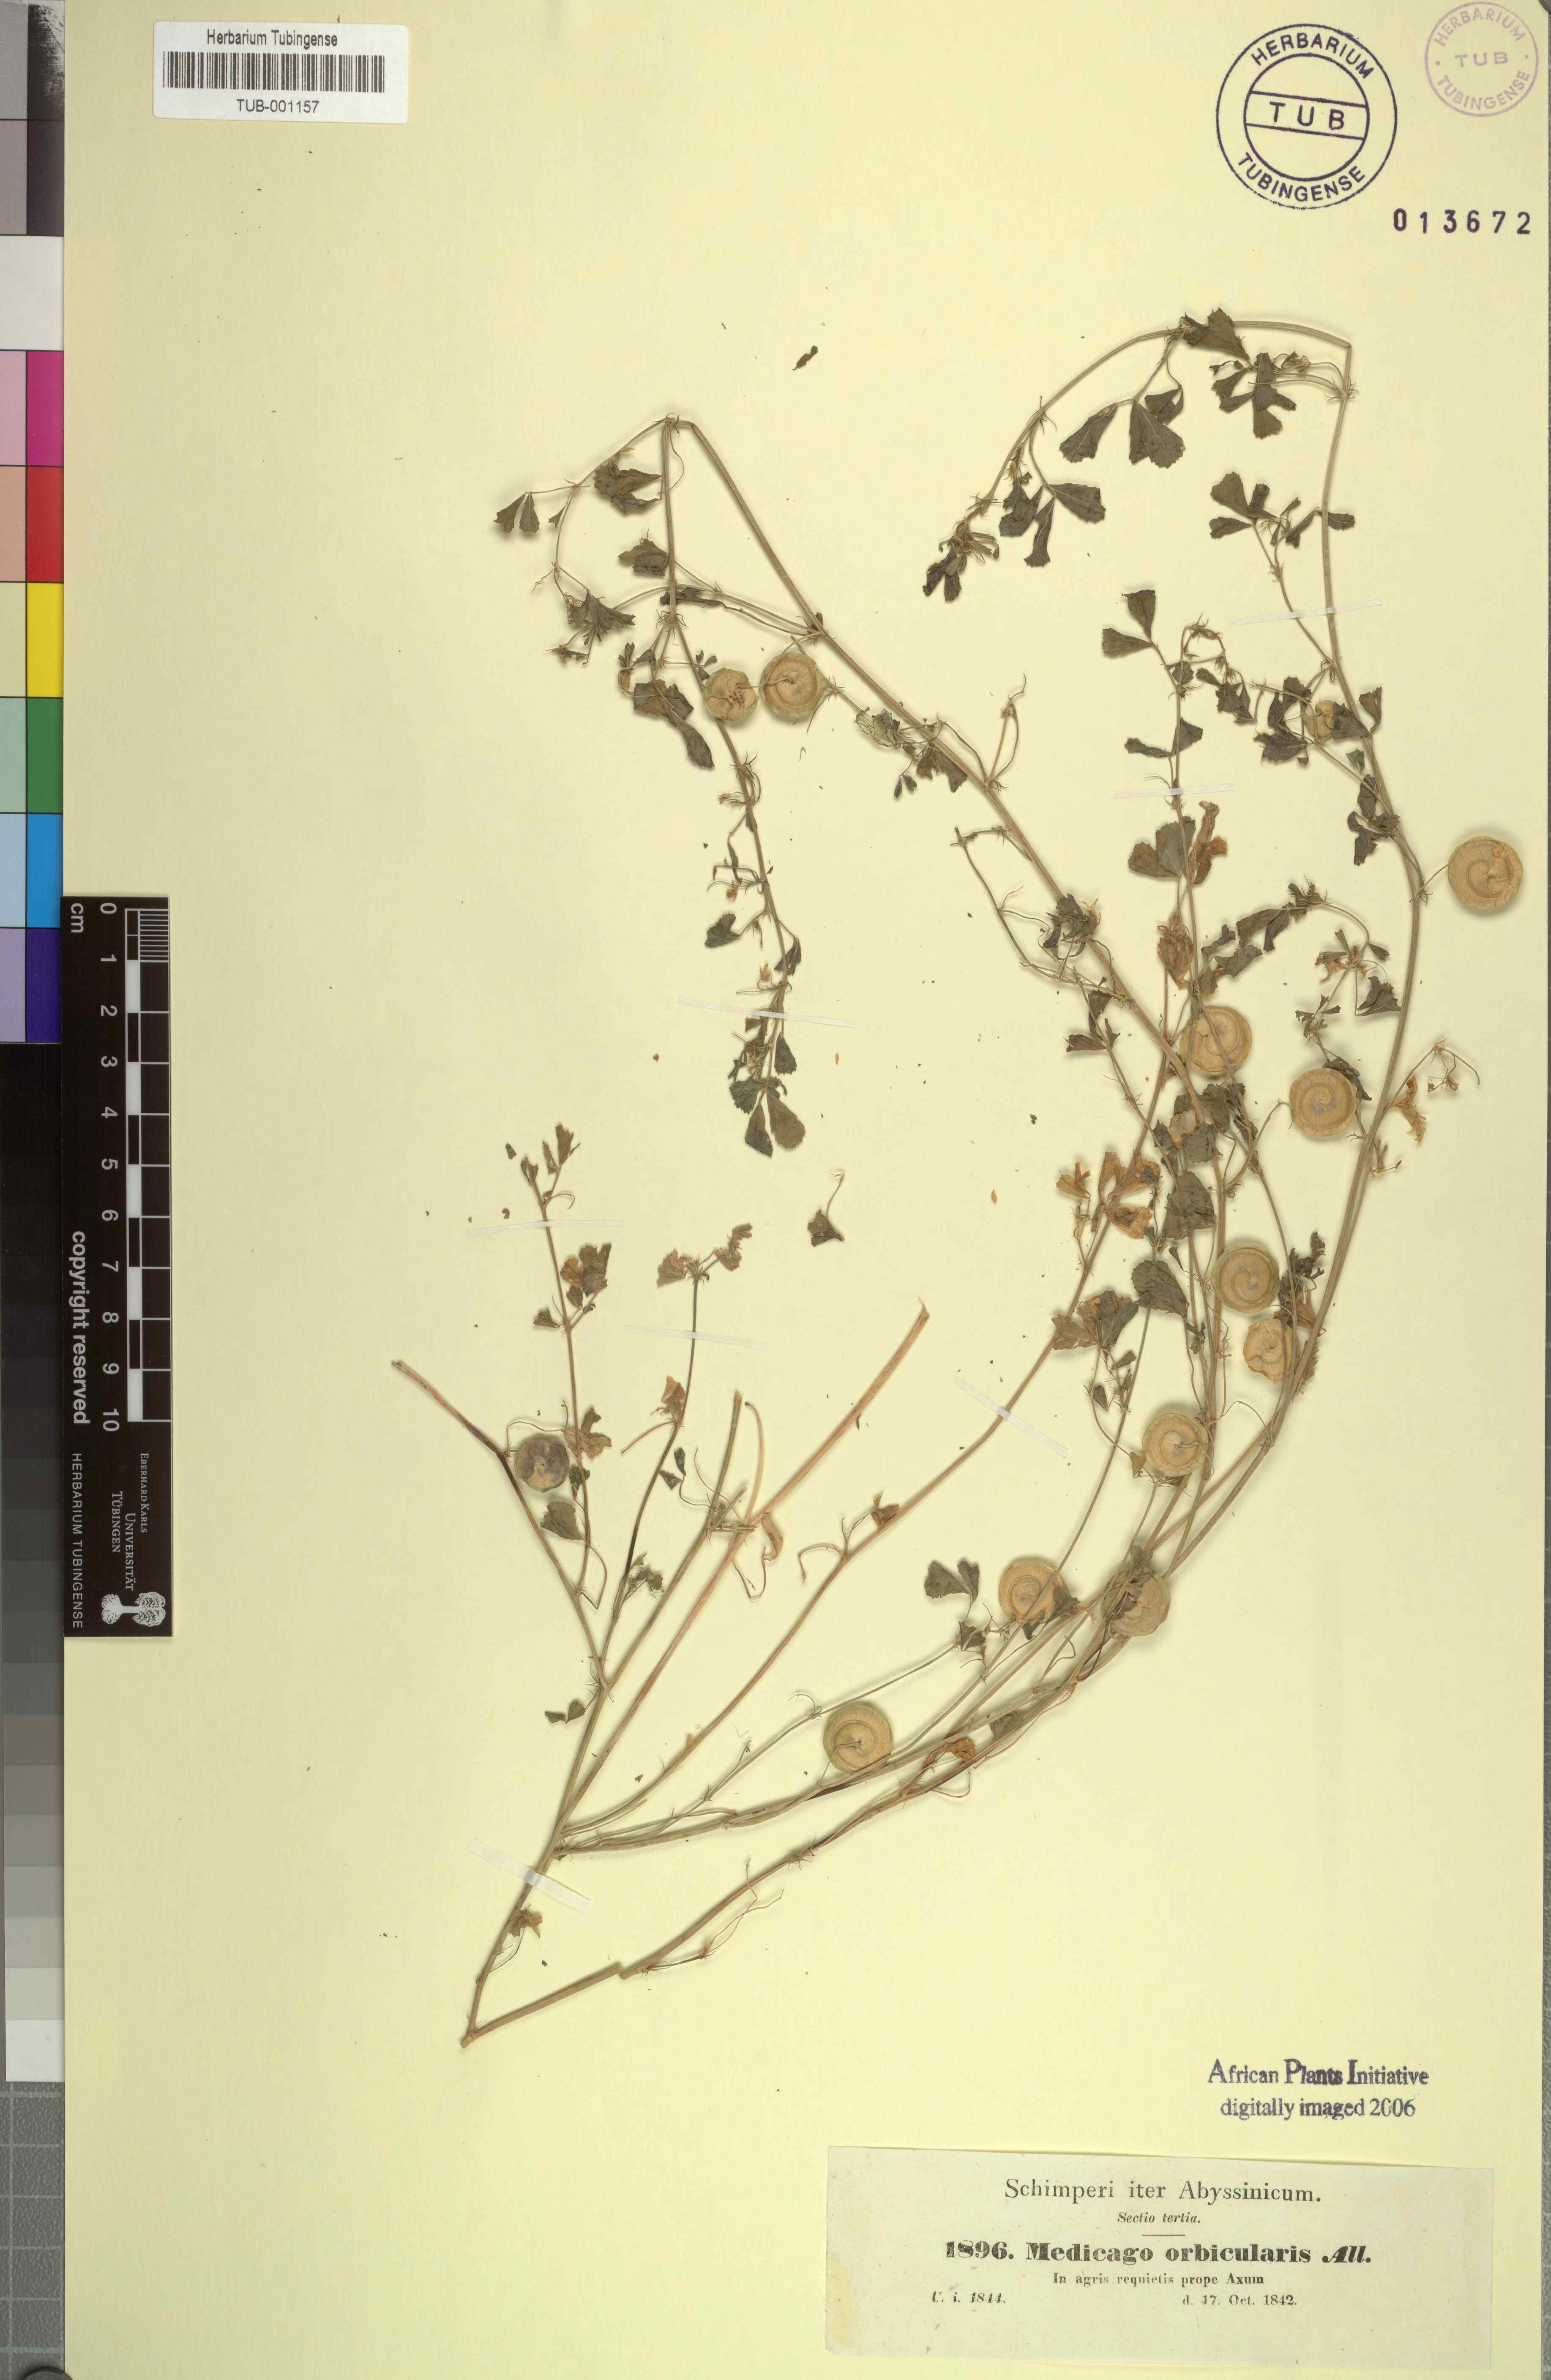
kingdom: Plantae
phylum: Tracheophyta
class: Magnoliopsida
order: Fabales
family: Fabaceae
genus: Medicago
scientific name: Medicago orbicularis
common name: Button medick
